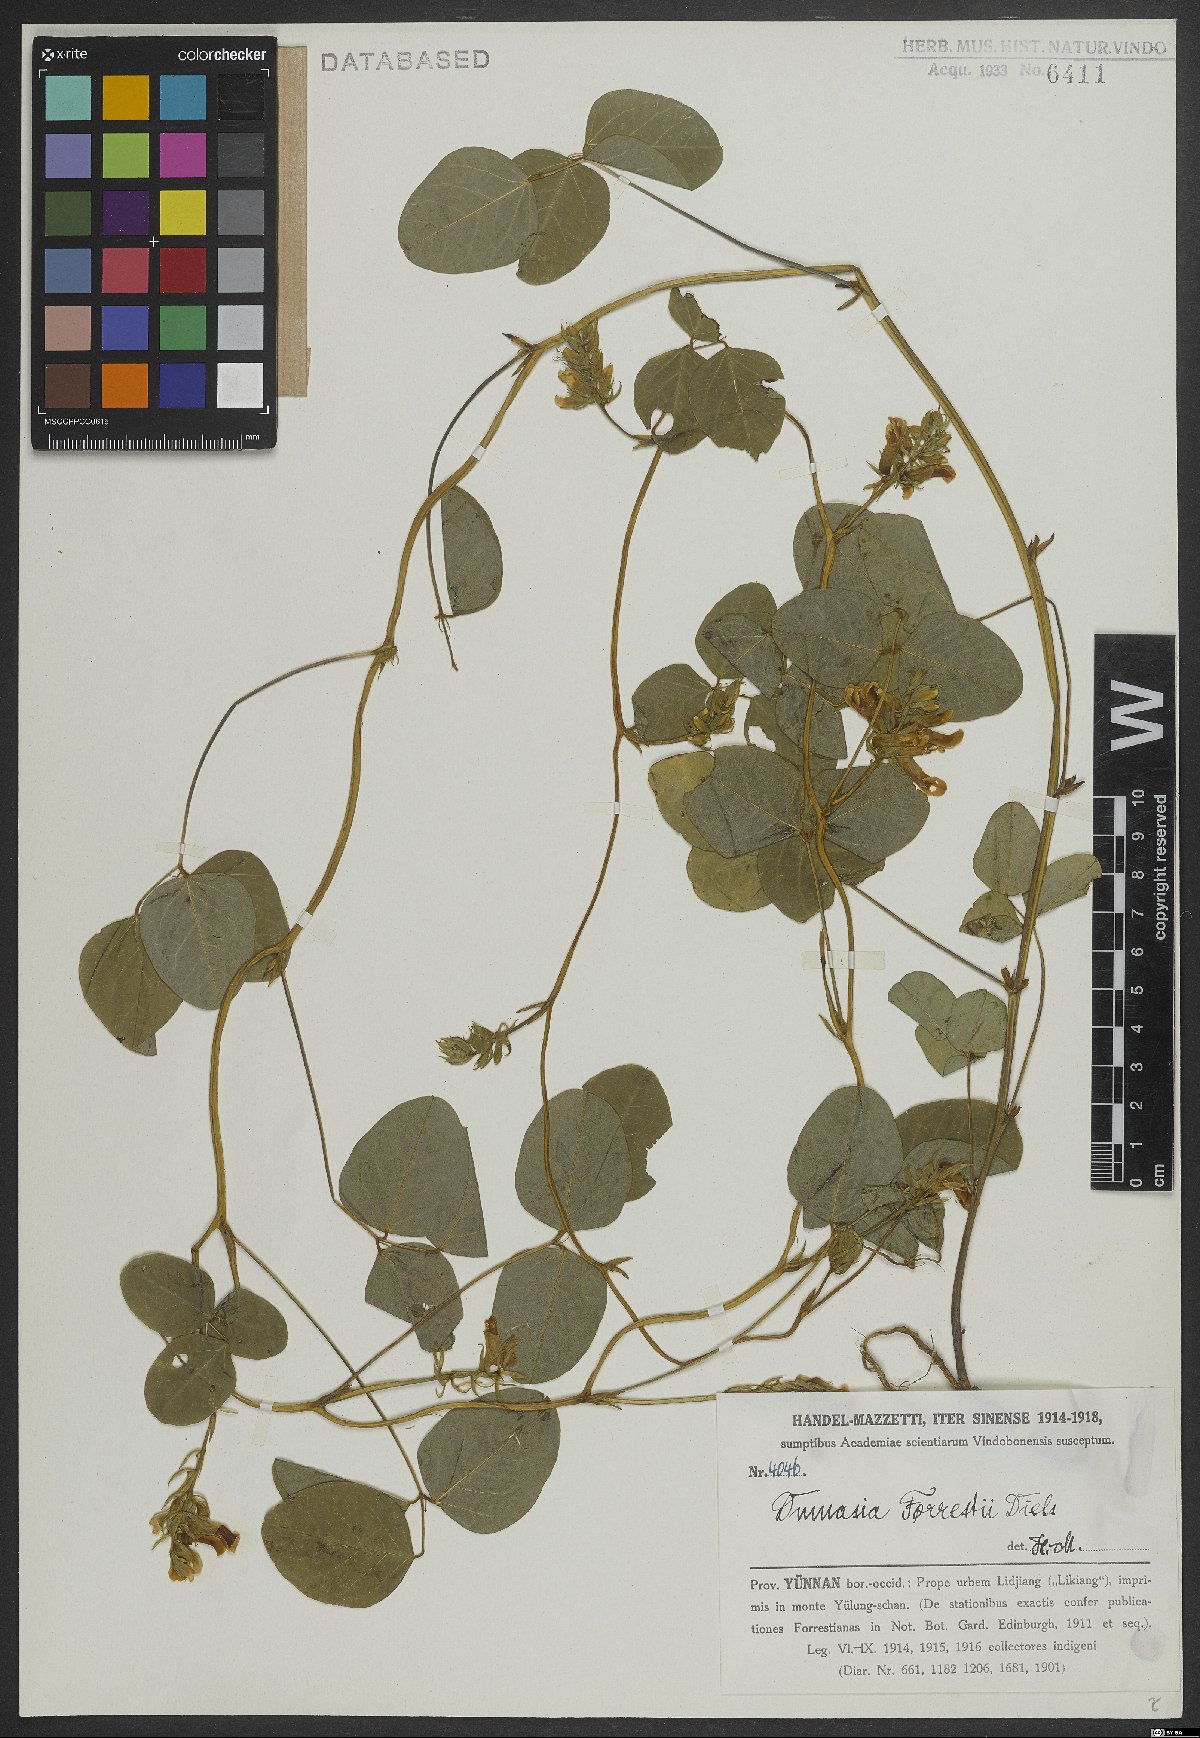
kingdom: Plantae
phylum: Tracheophyta
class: Magnoliopsida
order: Fabales
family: Fabaceae
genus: Dumasia
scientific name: Dumasia forrestii
